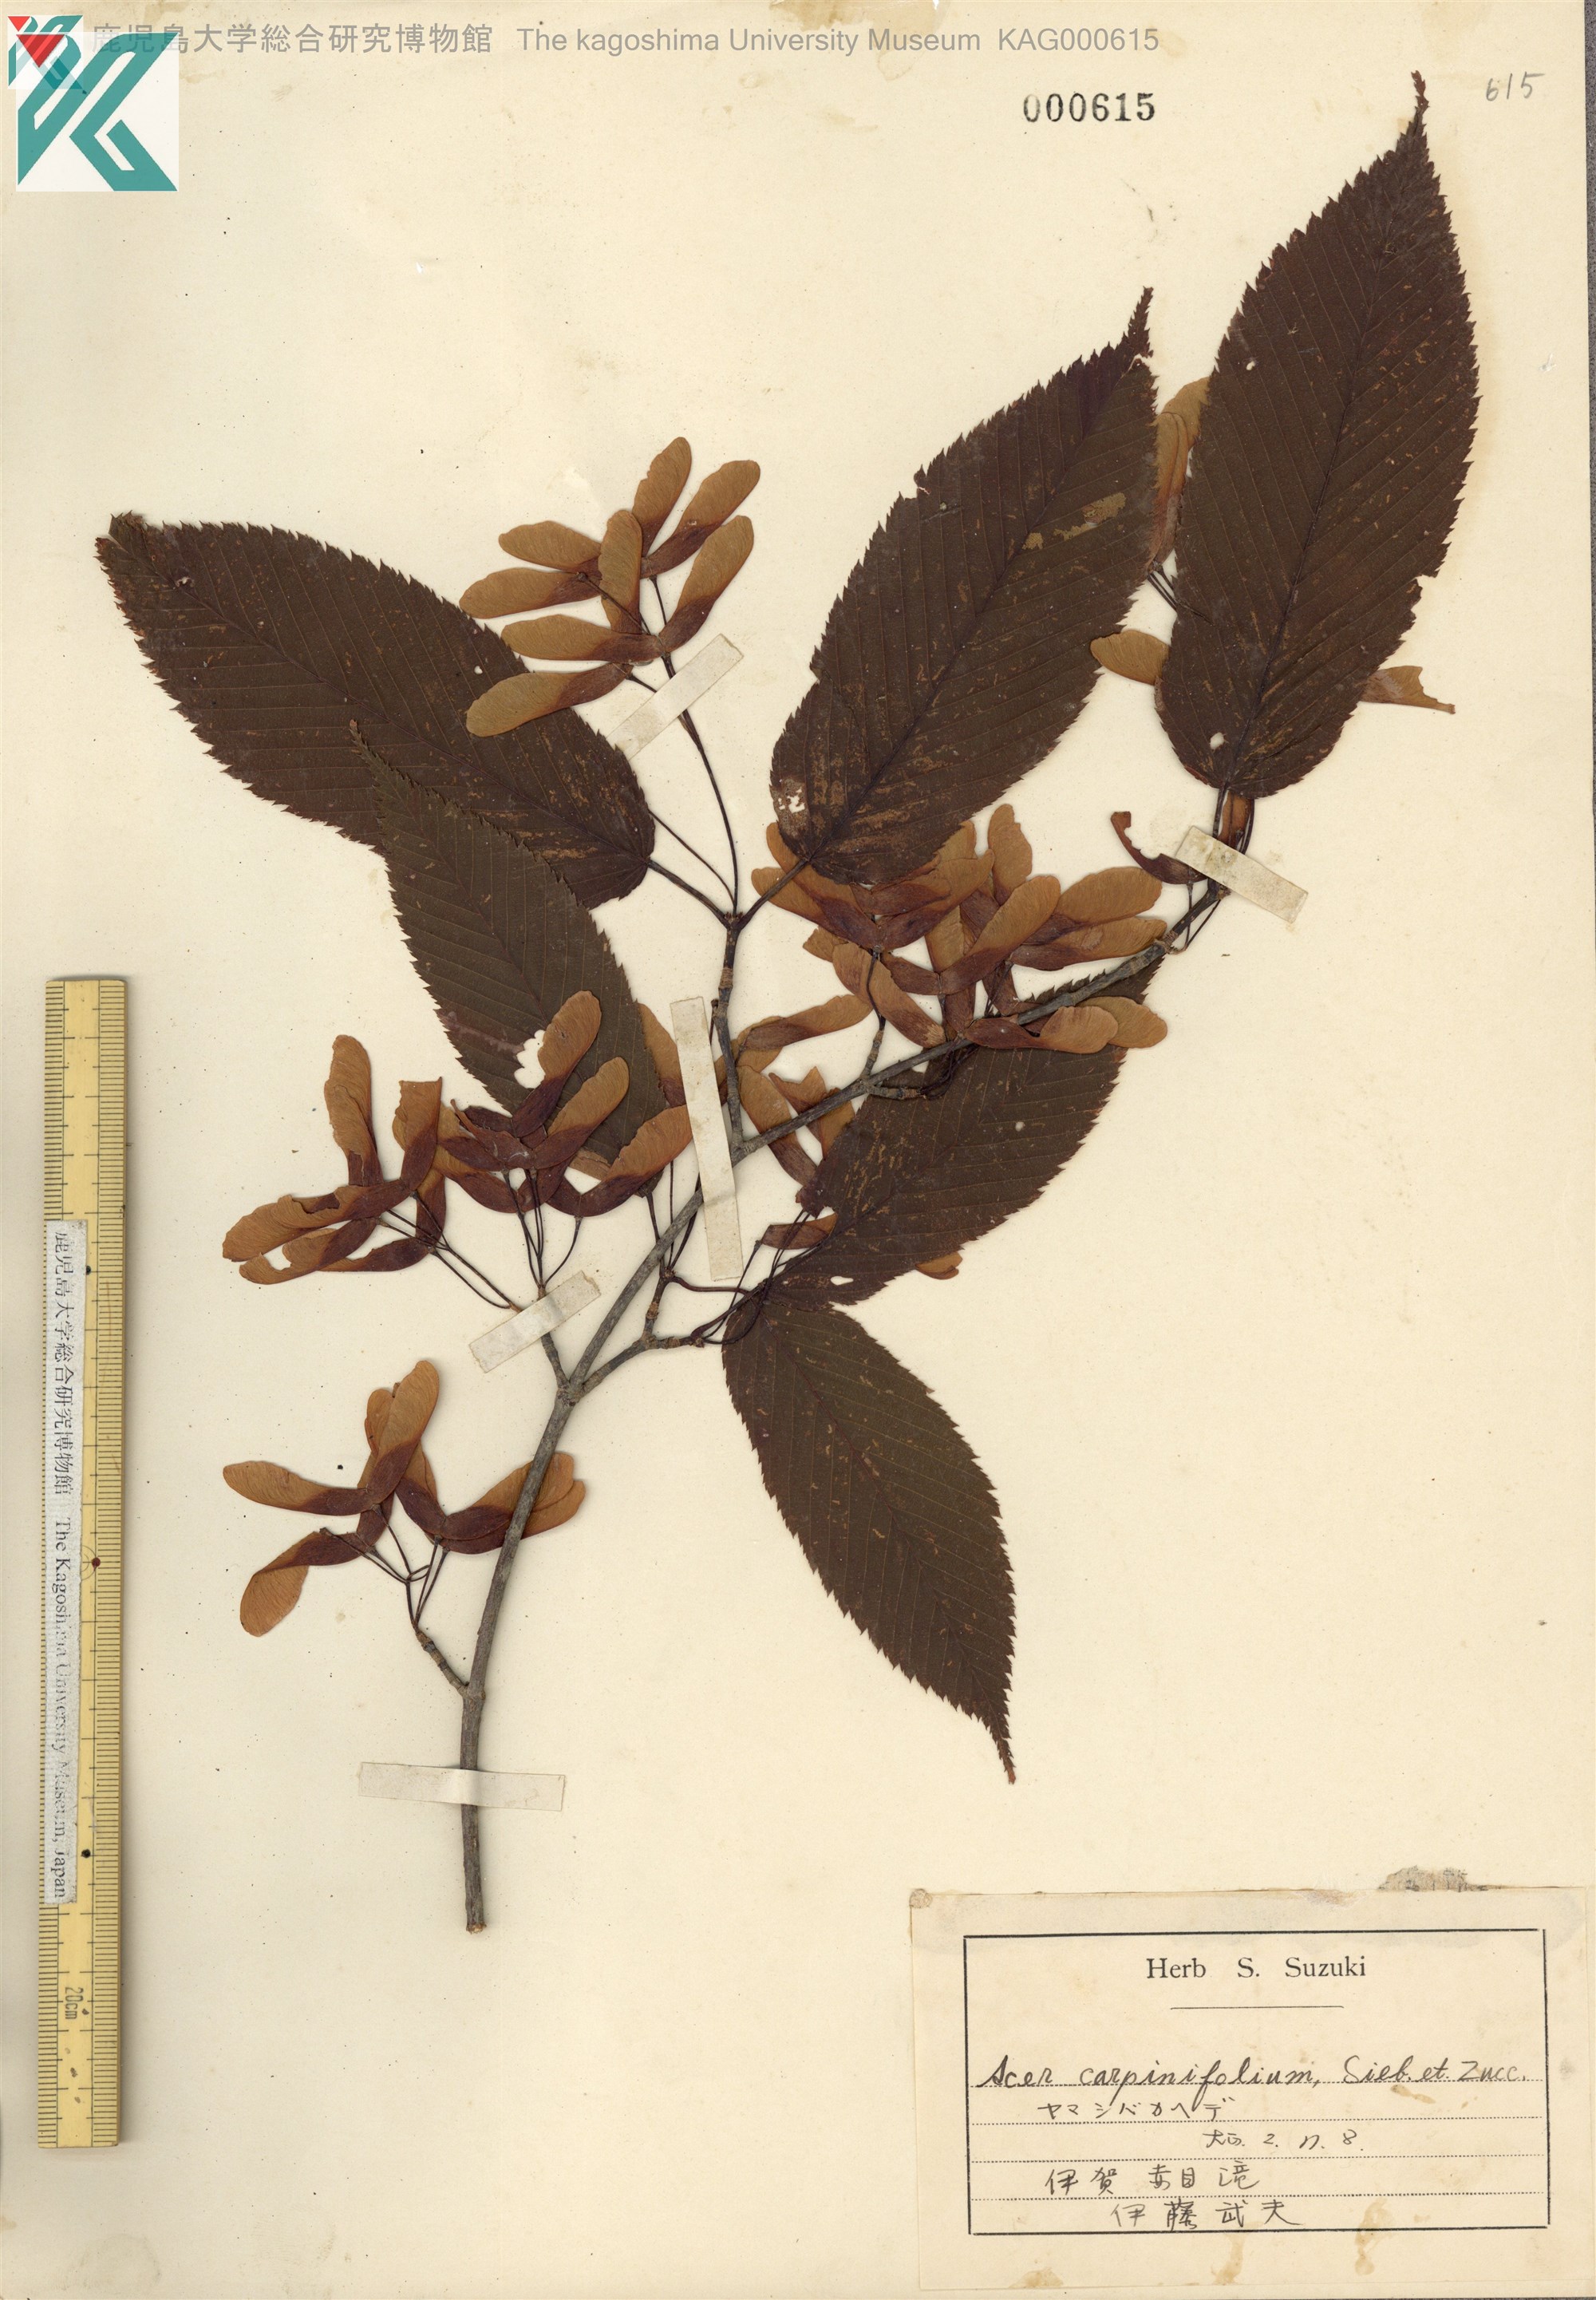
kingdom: Plantae
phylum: Tracheophyta
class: Magnoliopsida
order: Sapindales
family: Sapindaceae
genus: Acer
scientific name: Acer carpinifolium
